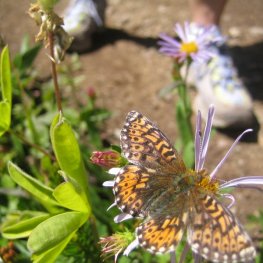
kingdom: Animalia
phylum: Arthropoda
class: Insecta
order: Lepidoptera
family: Nymphalidae
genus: Speyeria
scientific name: Speyeria atlantis
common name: Northwestern Fritillary
